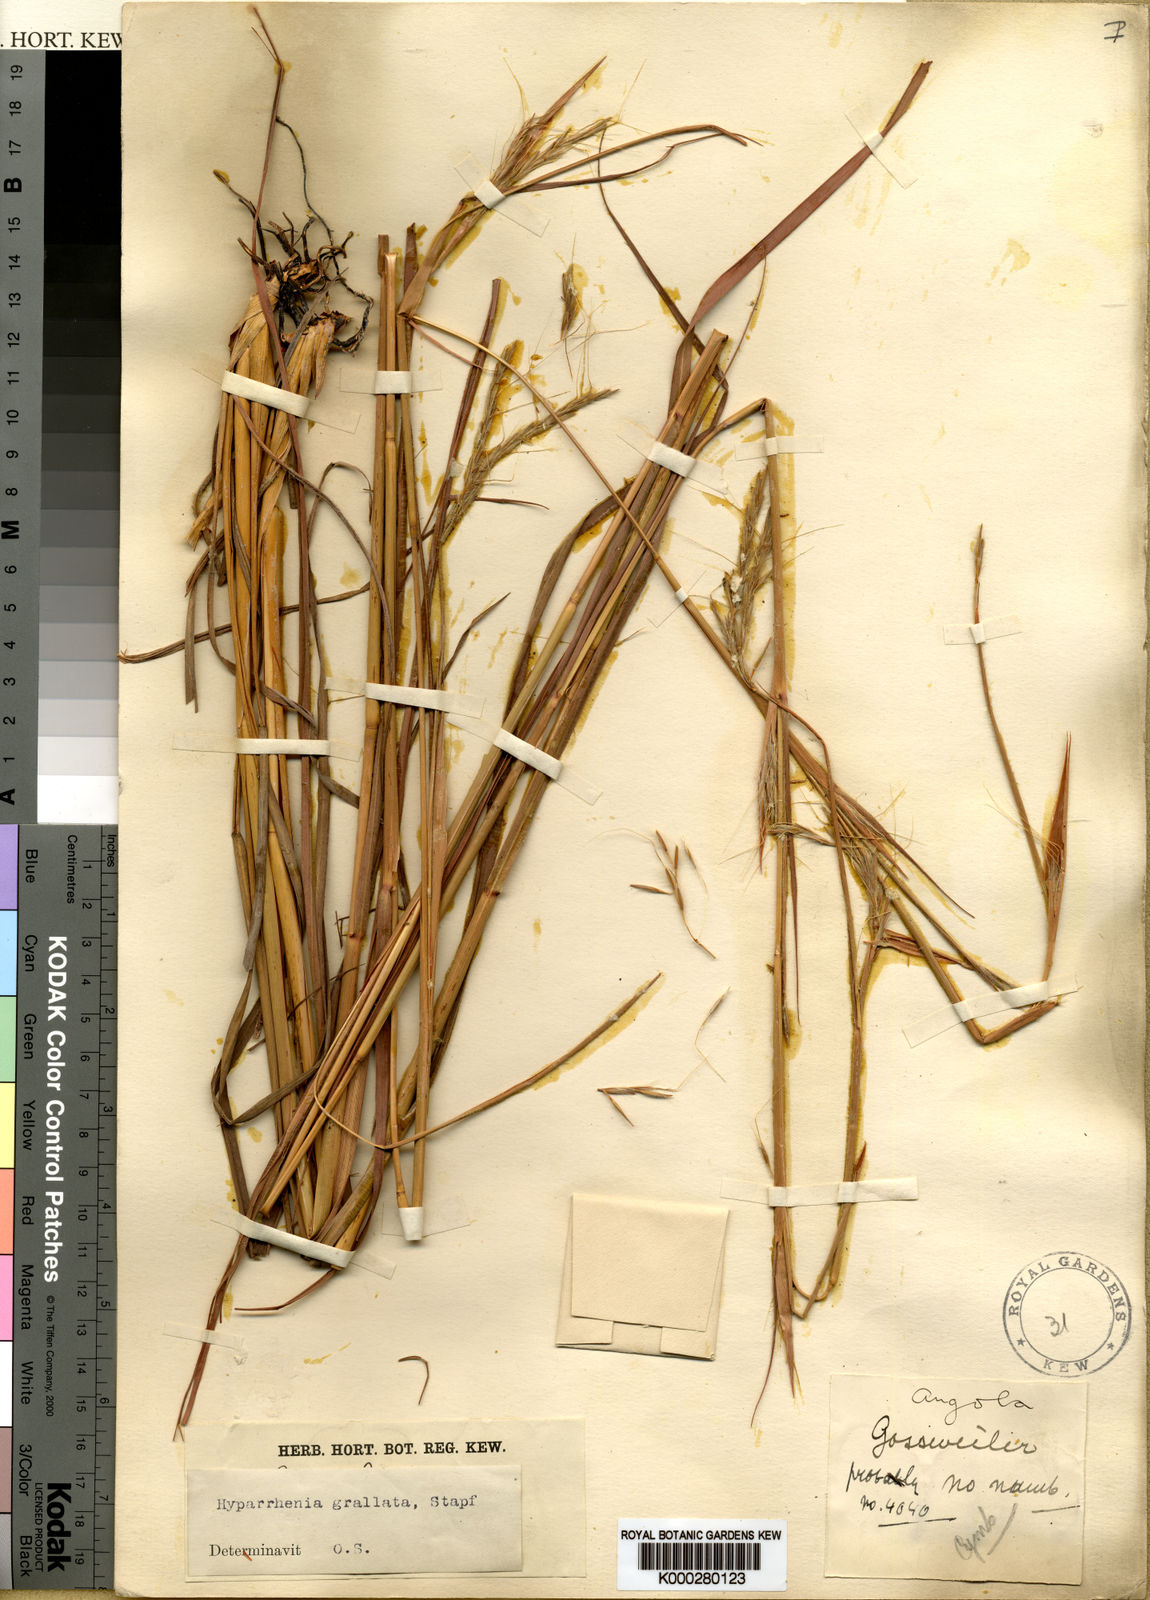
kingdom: Plantae
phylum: Tracheophyta
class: Liliopsida
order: Poales
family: Poaceae
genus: Elymandra
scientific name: Elymandra grallata
